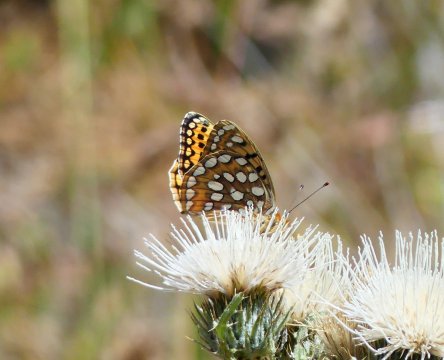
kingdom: Animalia
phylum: Arthropoda
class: Insecta
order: Lepidoptera
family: Nymphalidae
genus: Speyeria
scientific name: Speyeria coronis
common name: Coronis Fritillary
